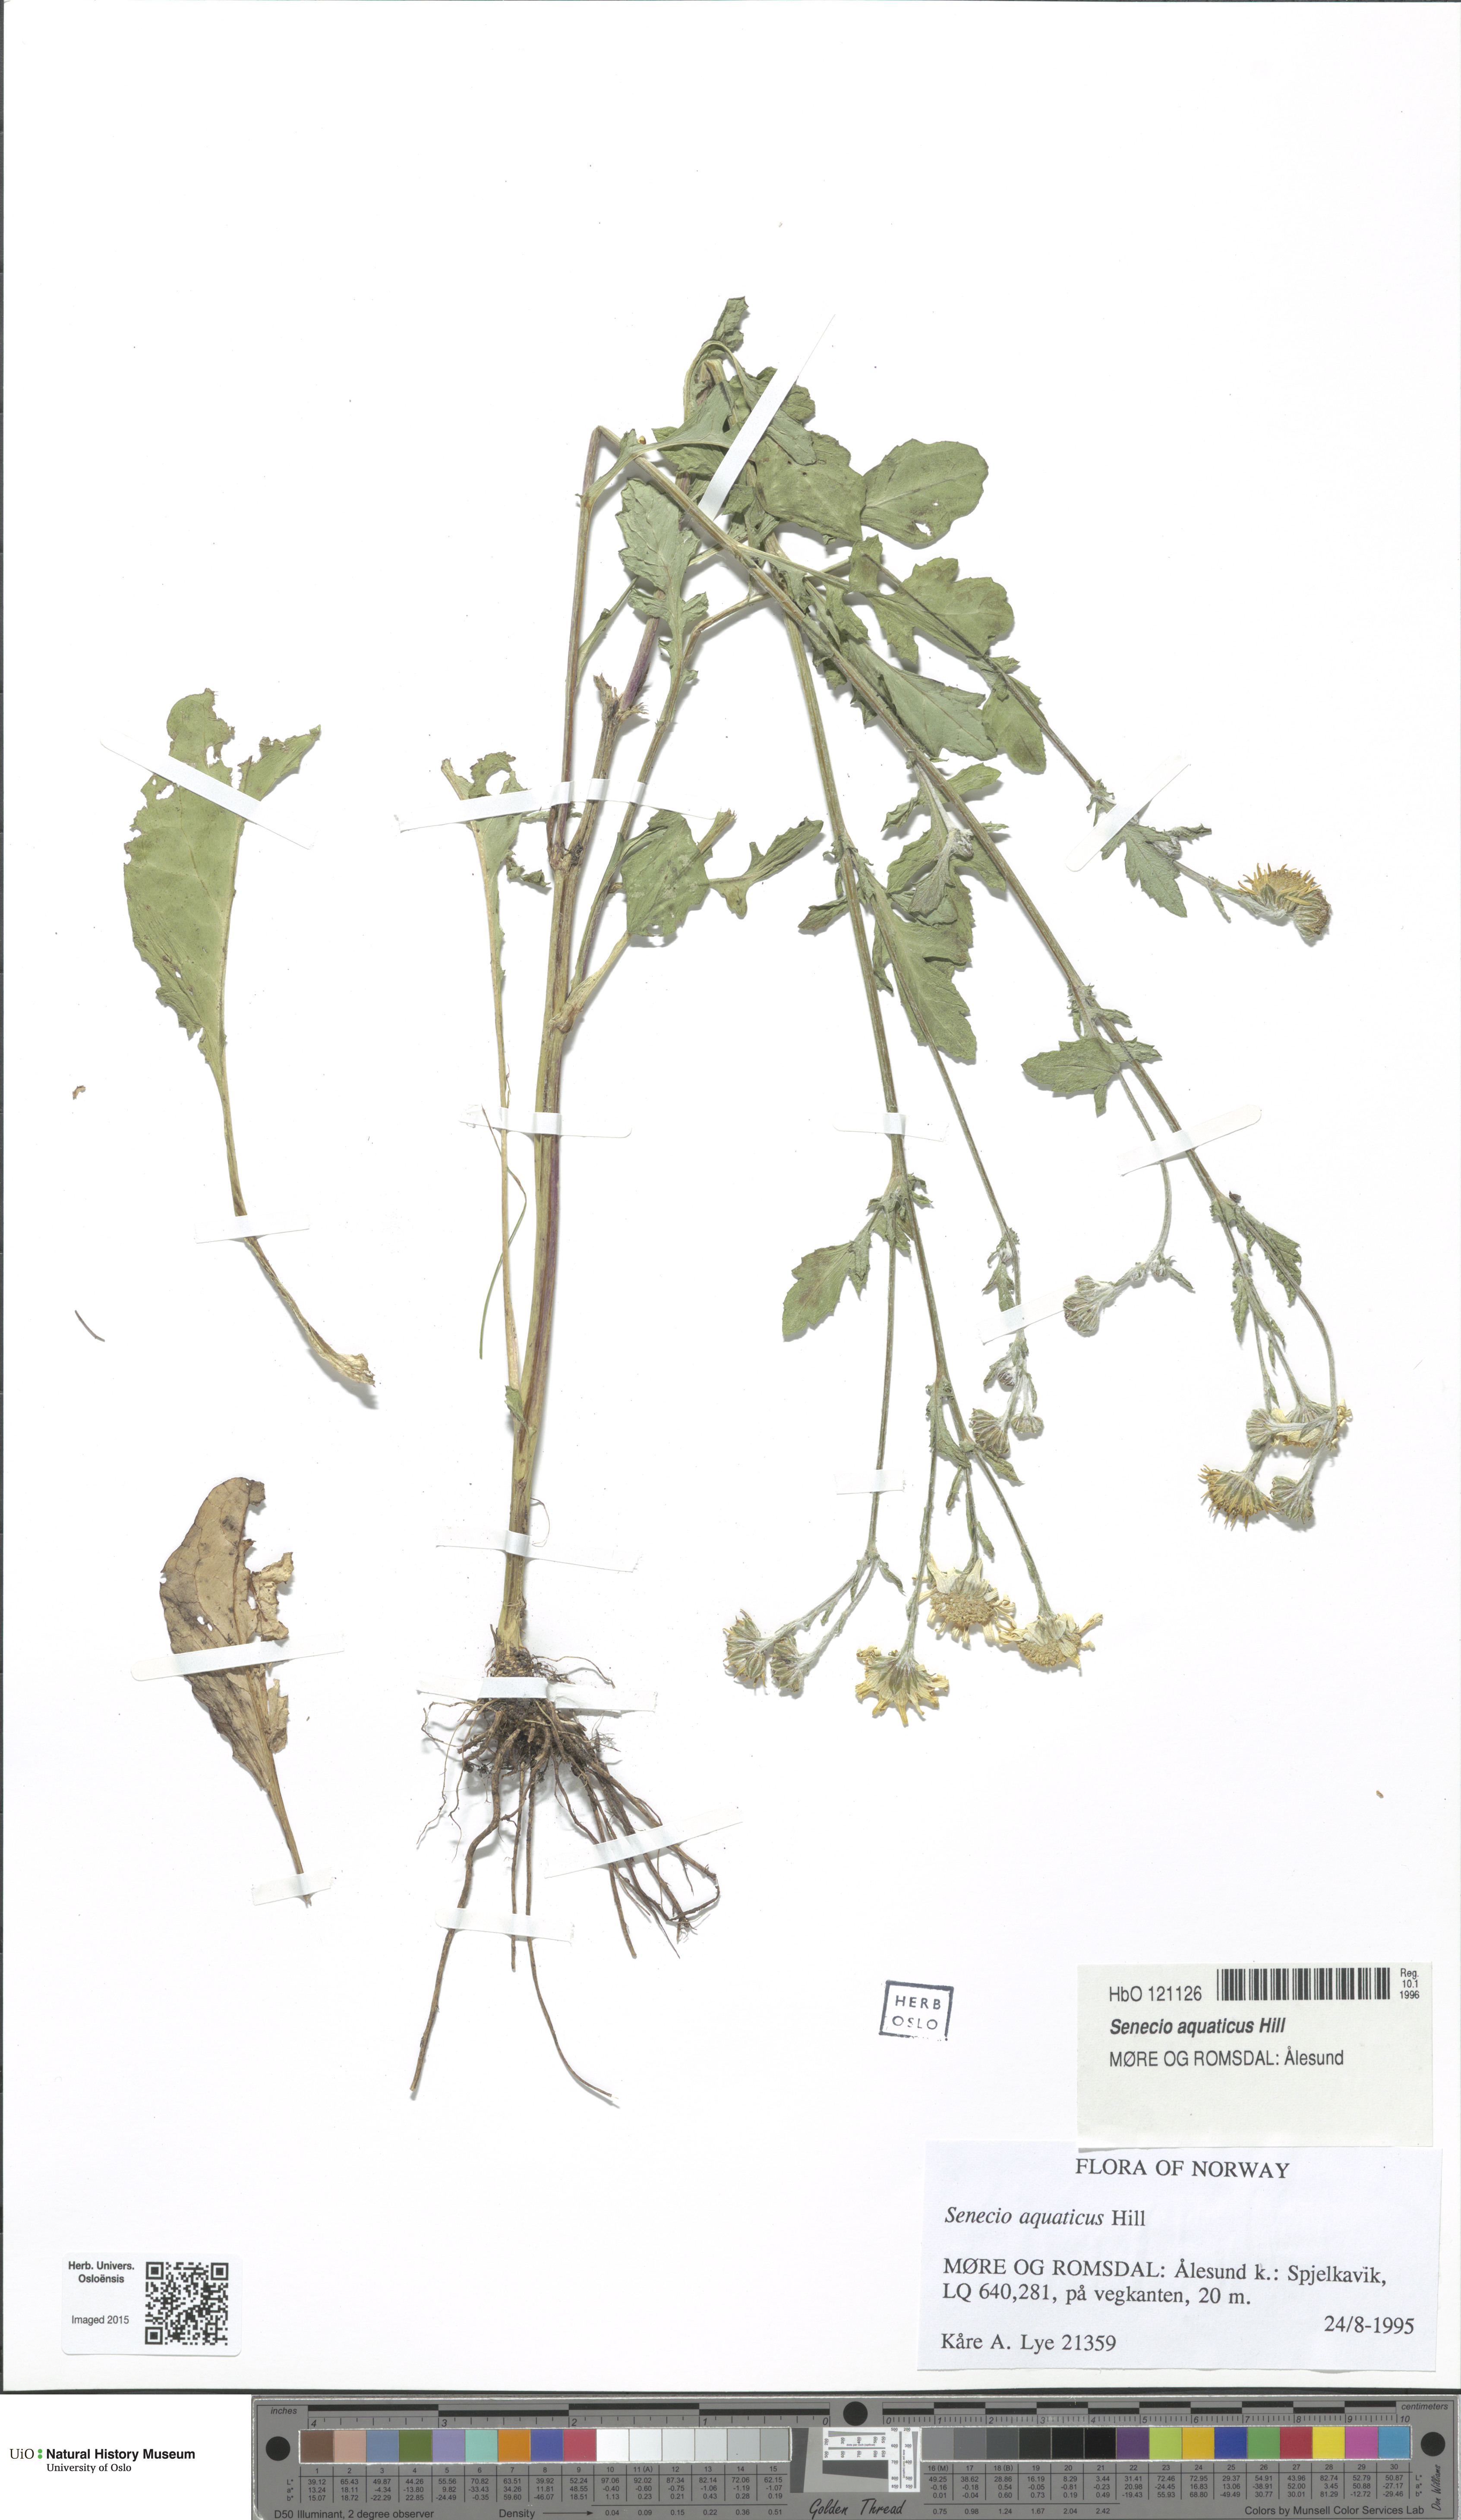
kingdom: Plantae
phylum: Tracheophyta
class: Magnoliopsida
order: Asterales
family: Asteraceae
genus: Jacobaea
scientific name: Jacobaea aquatica
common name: Water ragwort
